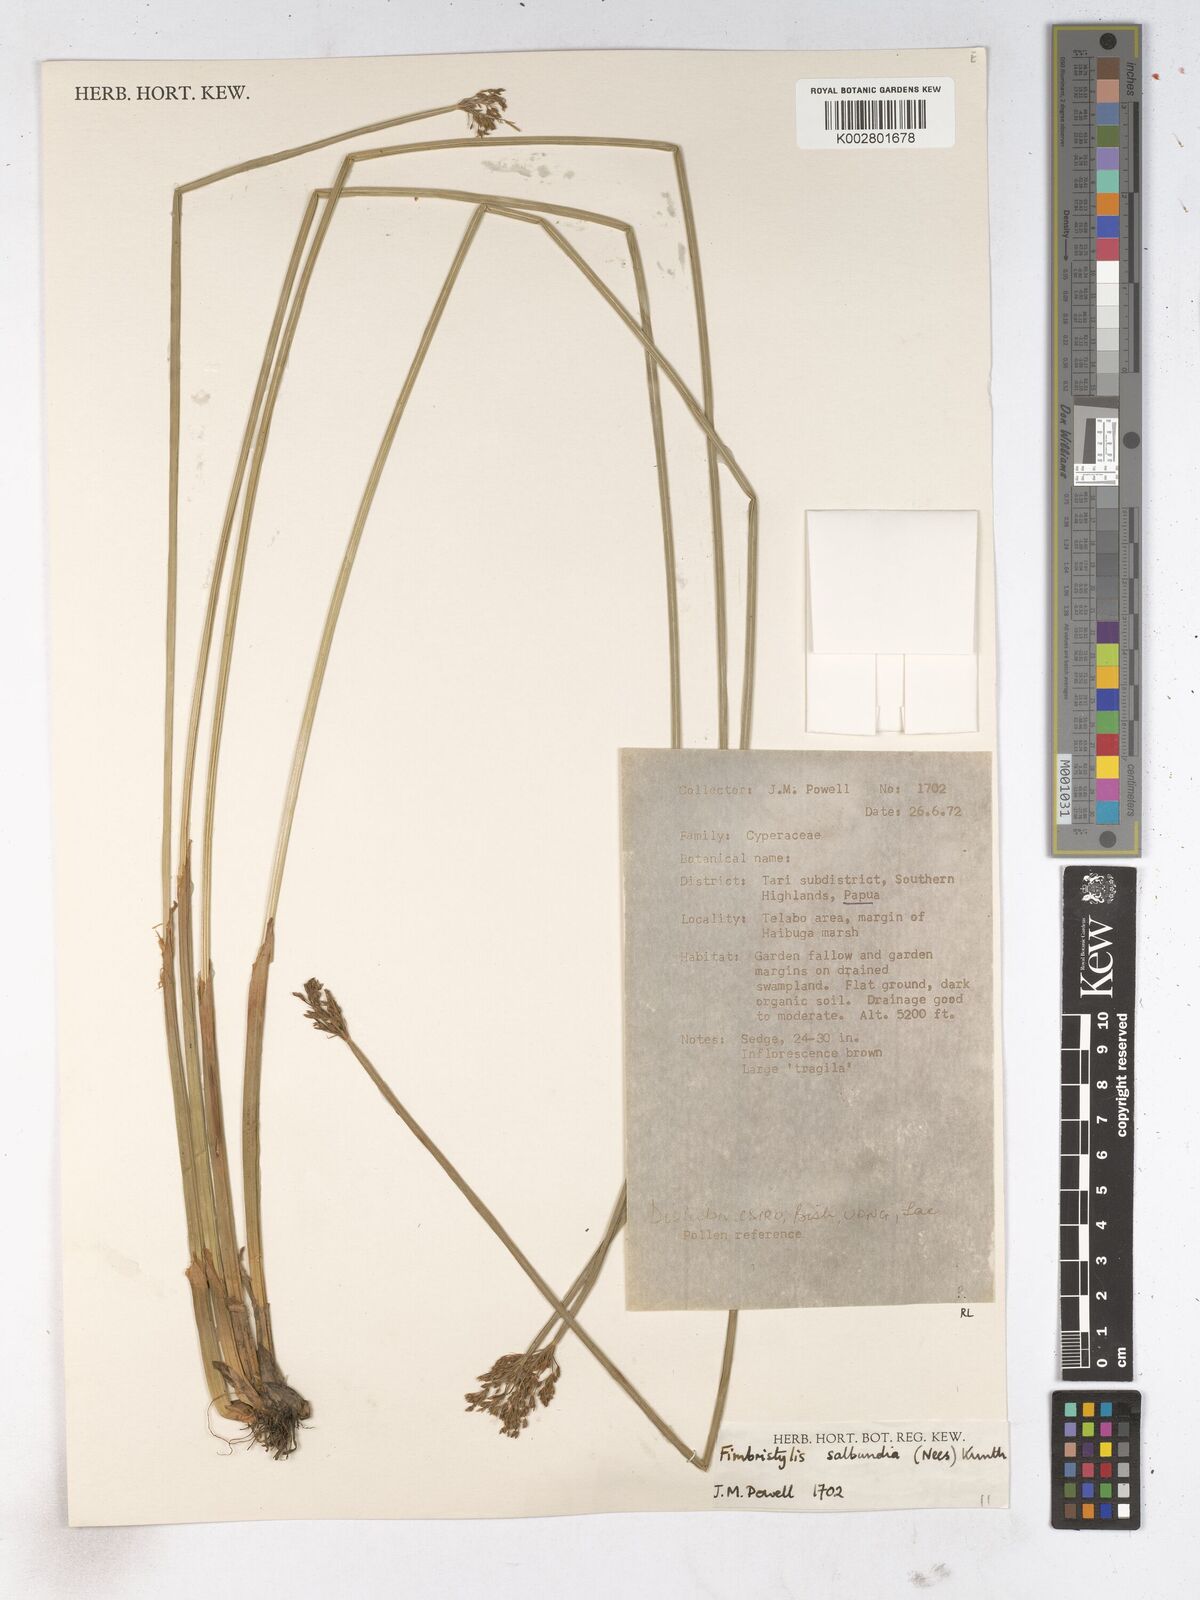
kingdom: Plantae
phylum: Tracheophyta
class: Liliopsida
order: Poales
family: Cyperaceae
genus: Fimbristylis
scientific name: Fimbristylis salbundia
